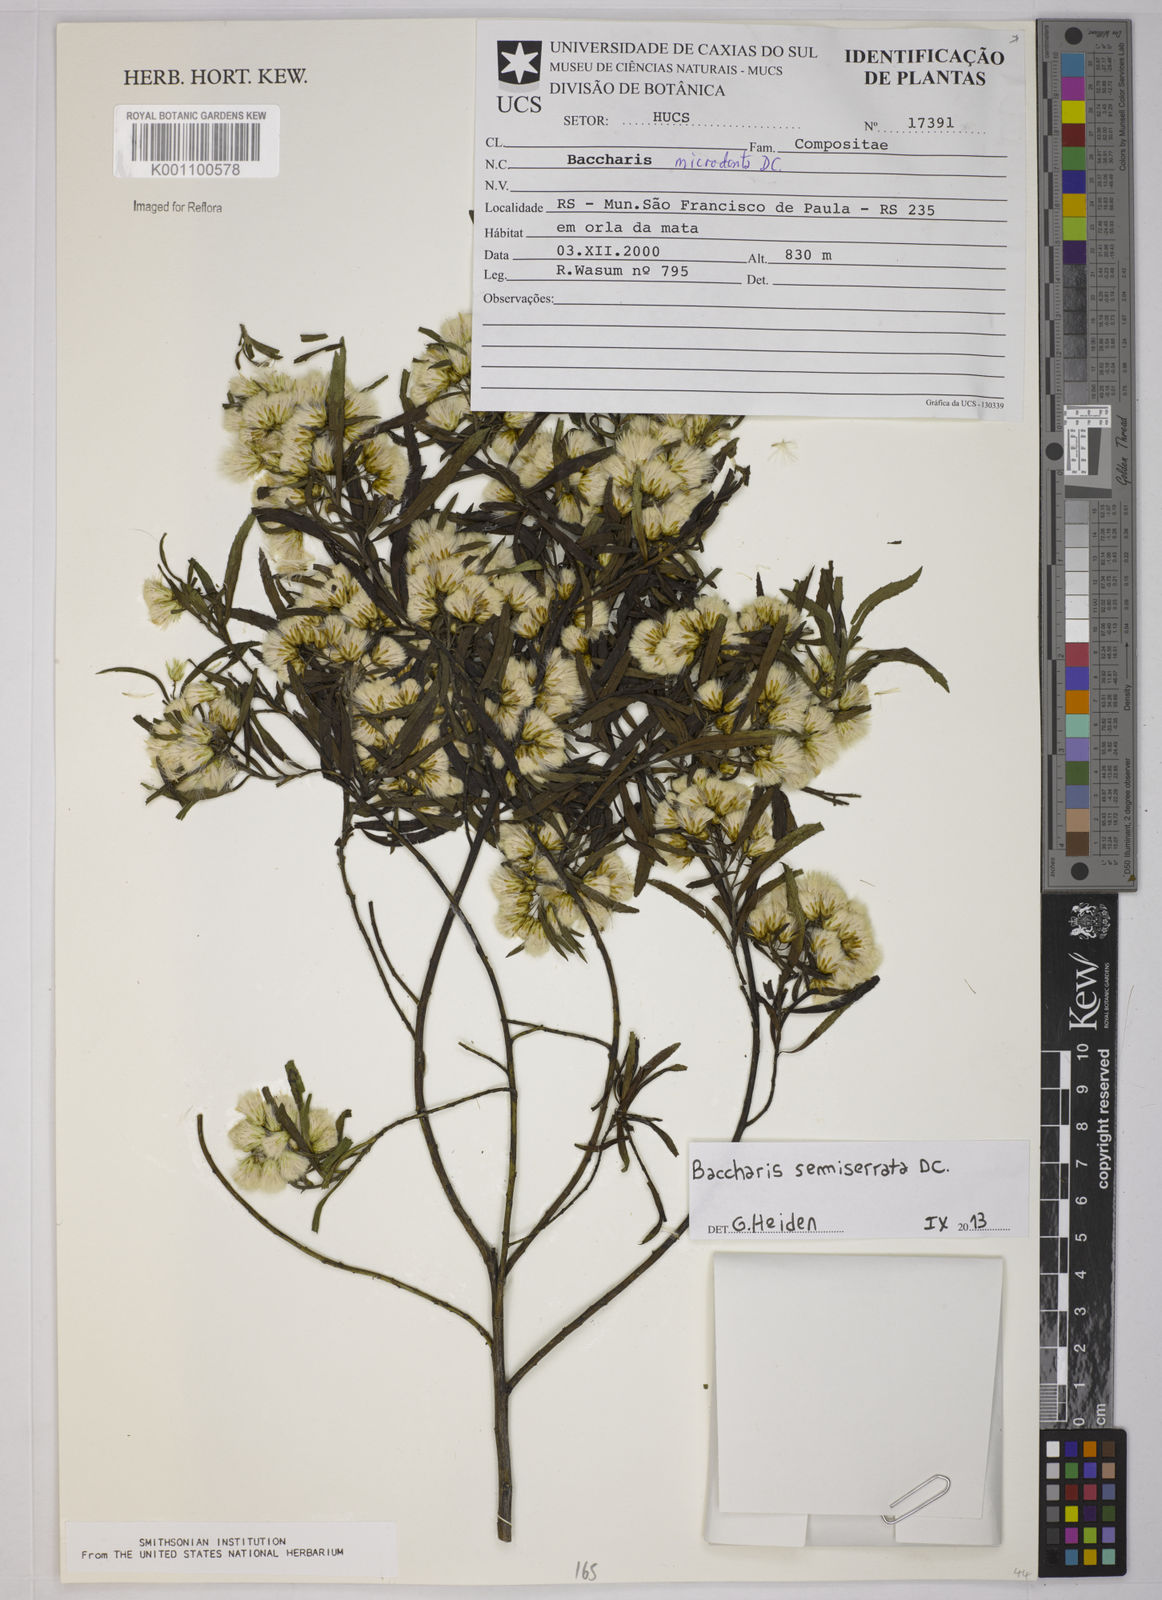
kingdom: Plantae
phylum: Tracheophyta
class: Magnoliopsida
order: Asterales
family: Asteraceae
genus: Baccharis
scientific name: Baccharis gnidiifolia
